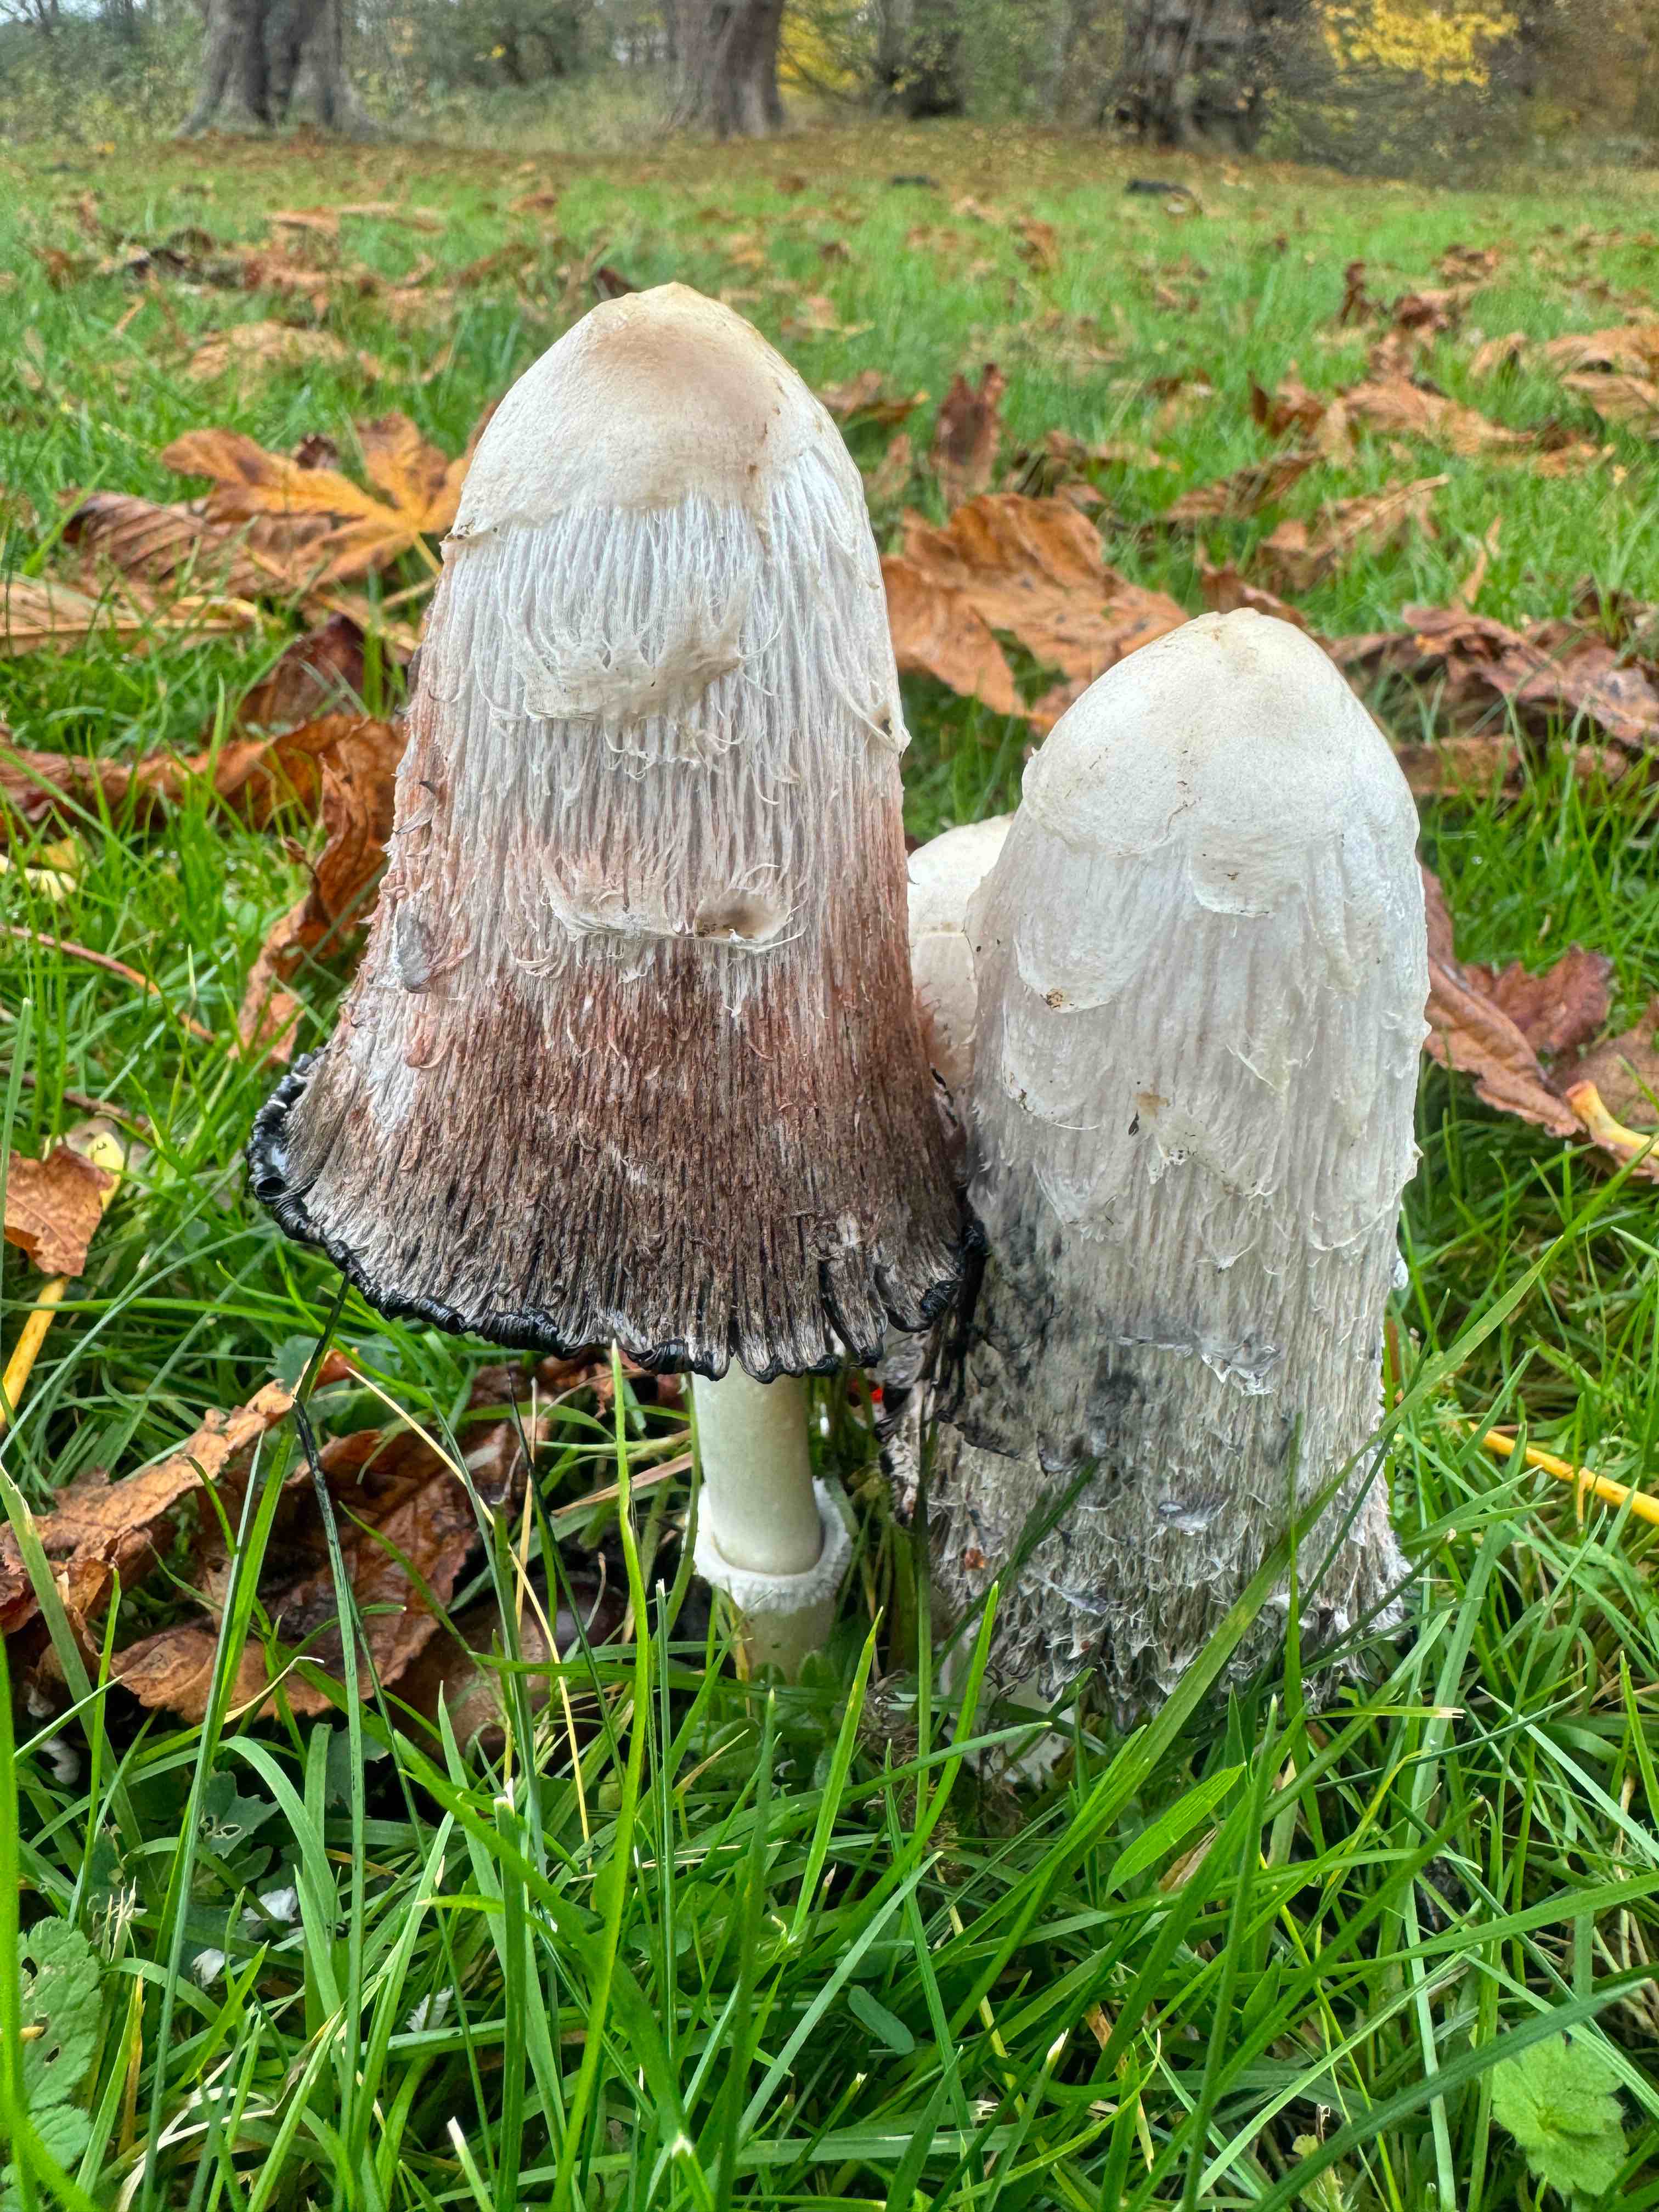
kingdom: Fungi
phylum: Basidiomycota
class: Agaricomycetes
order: Agaricales
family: Agaricaceae
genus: Coprinus
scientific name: Coprinus comatus
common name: stor parykhat
